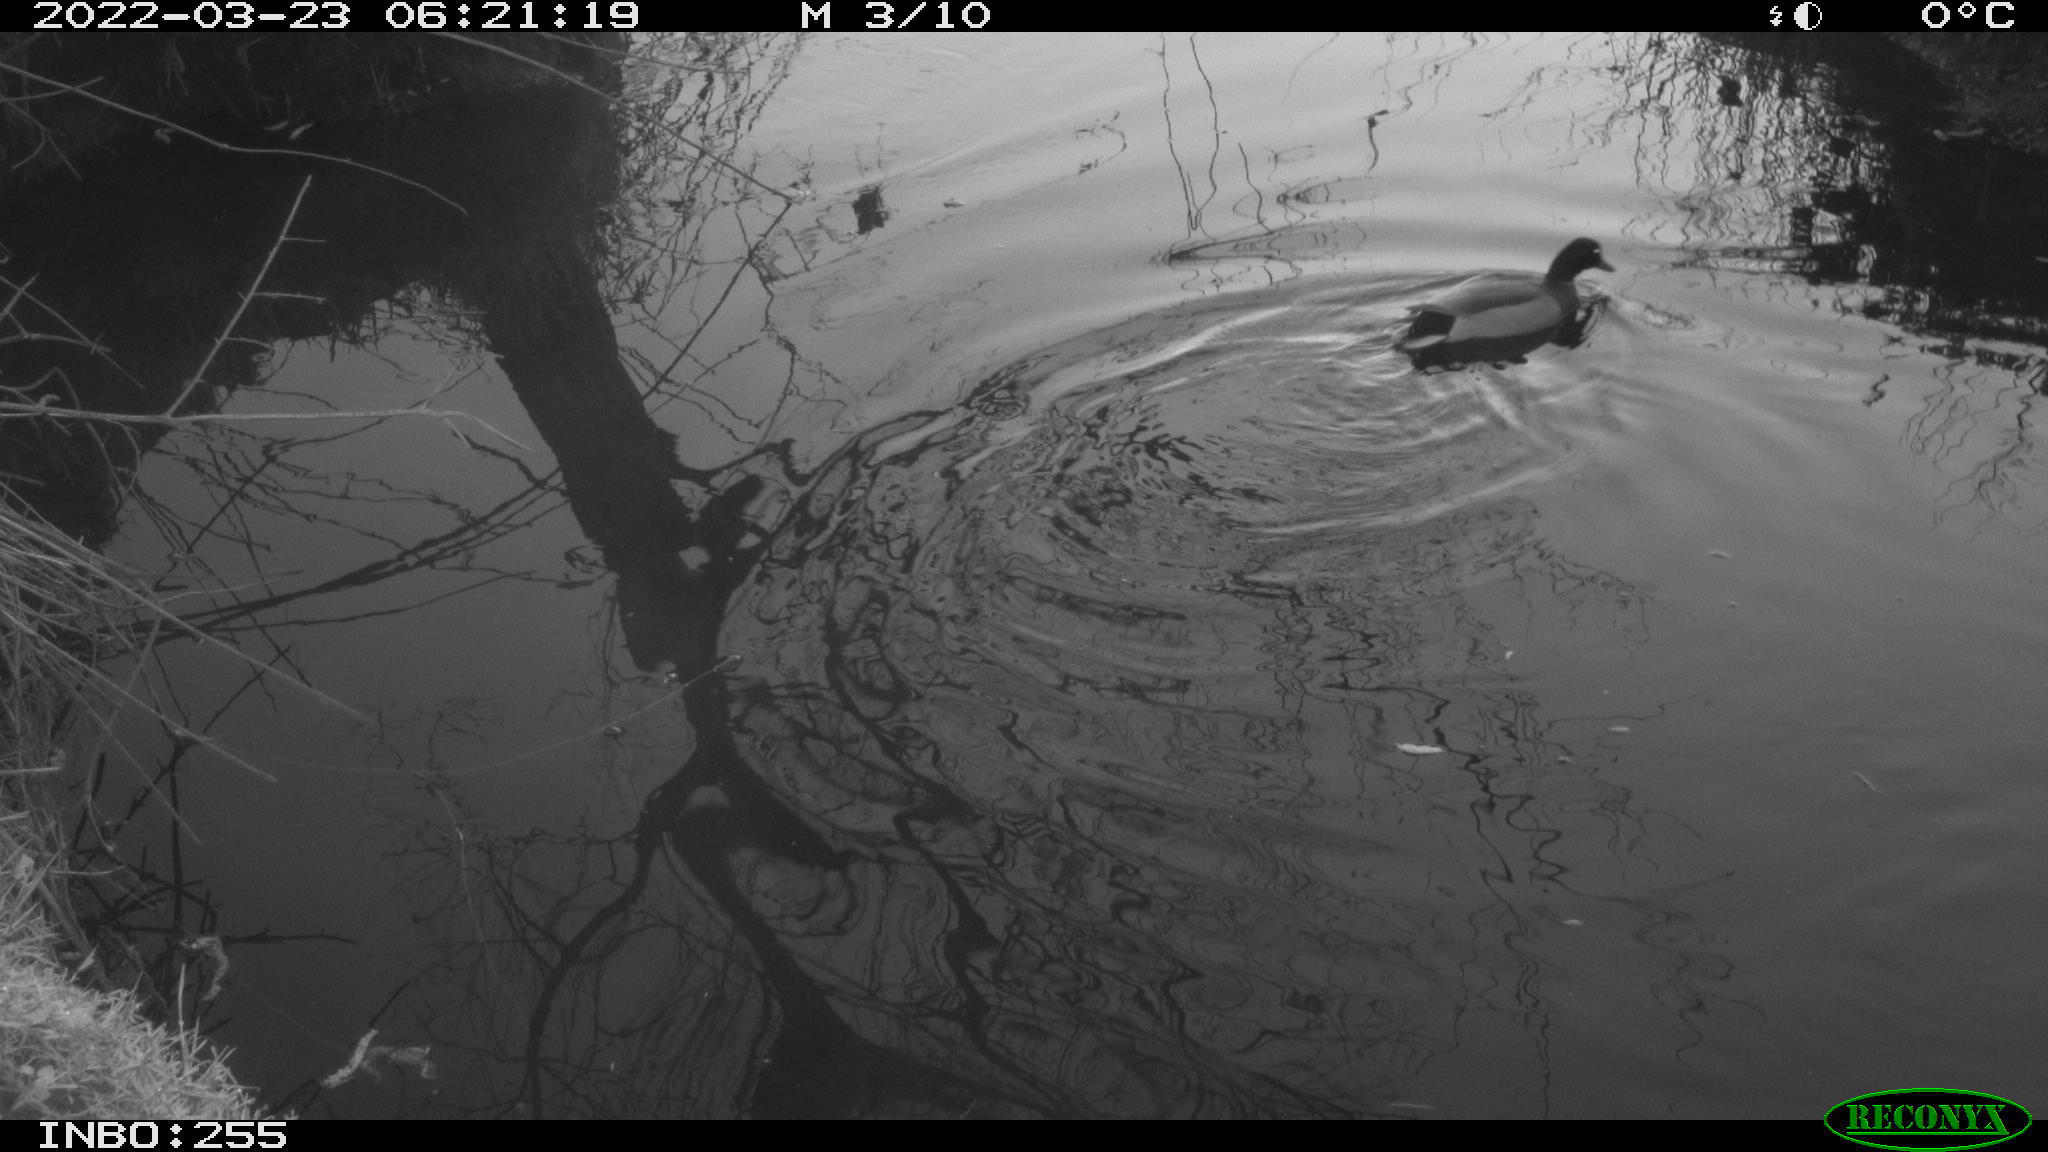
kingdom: Animalia
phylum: Chordata
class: Aves
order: Anseriformes
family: Anatidae
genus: Anas
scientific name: Anas platyrhynchos
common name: Mallard
